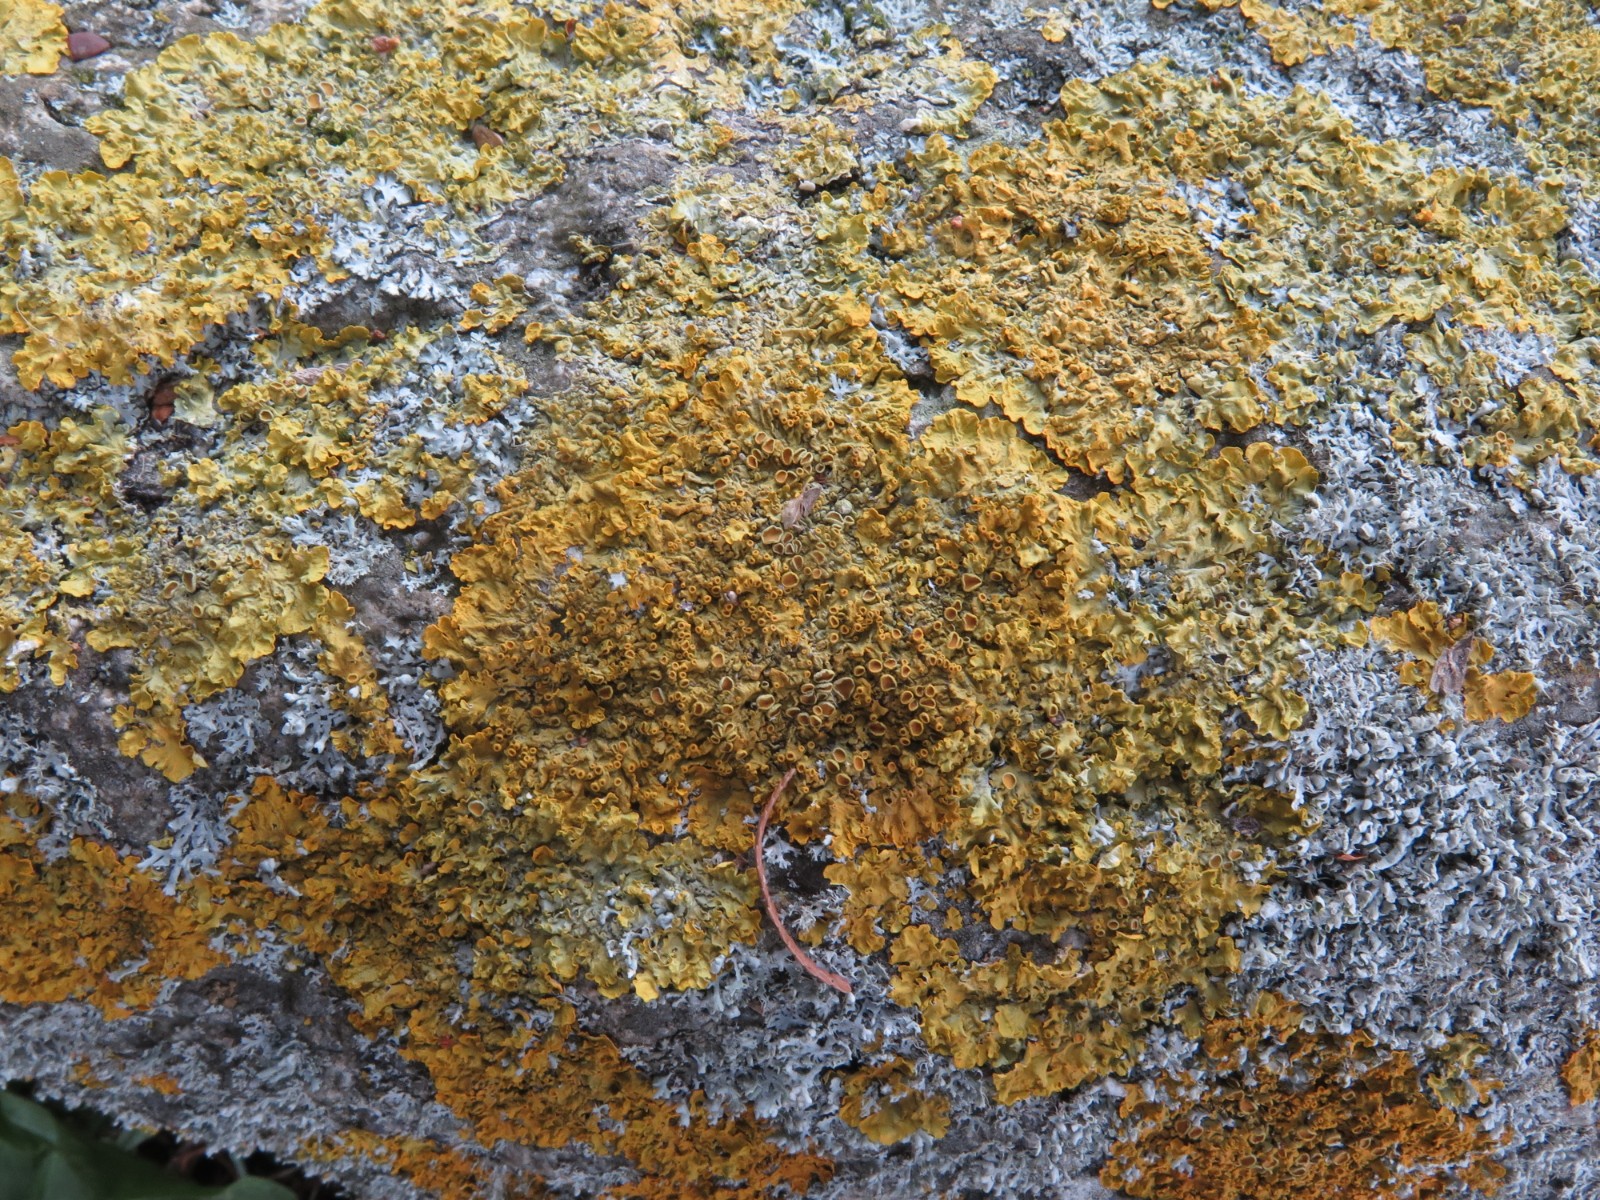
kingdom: Fungi
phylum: Ascomycota
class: Lecanoromycetes
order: Teloschistales
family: Teloschistaceae
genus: Xanthoria
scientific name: Xanthoria parietina
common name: almindelig væggelav
